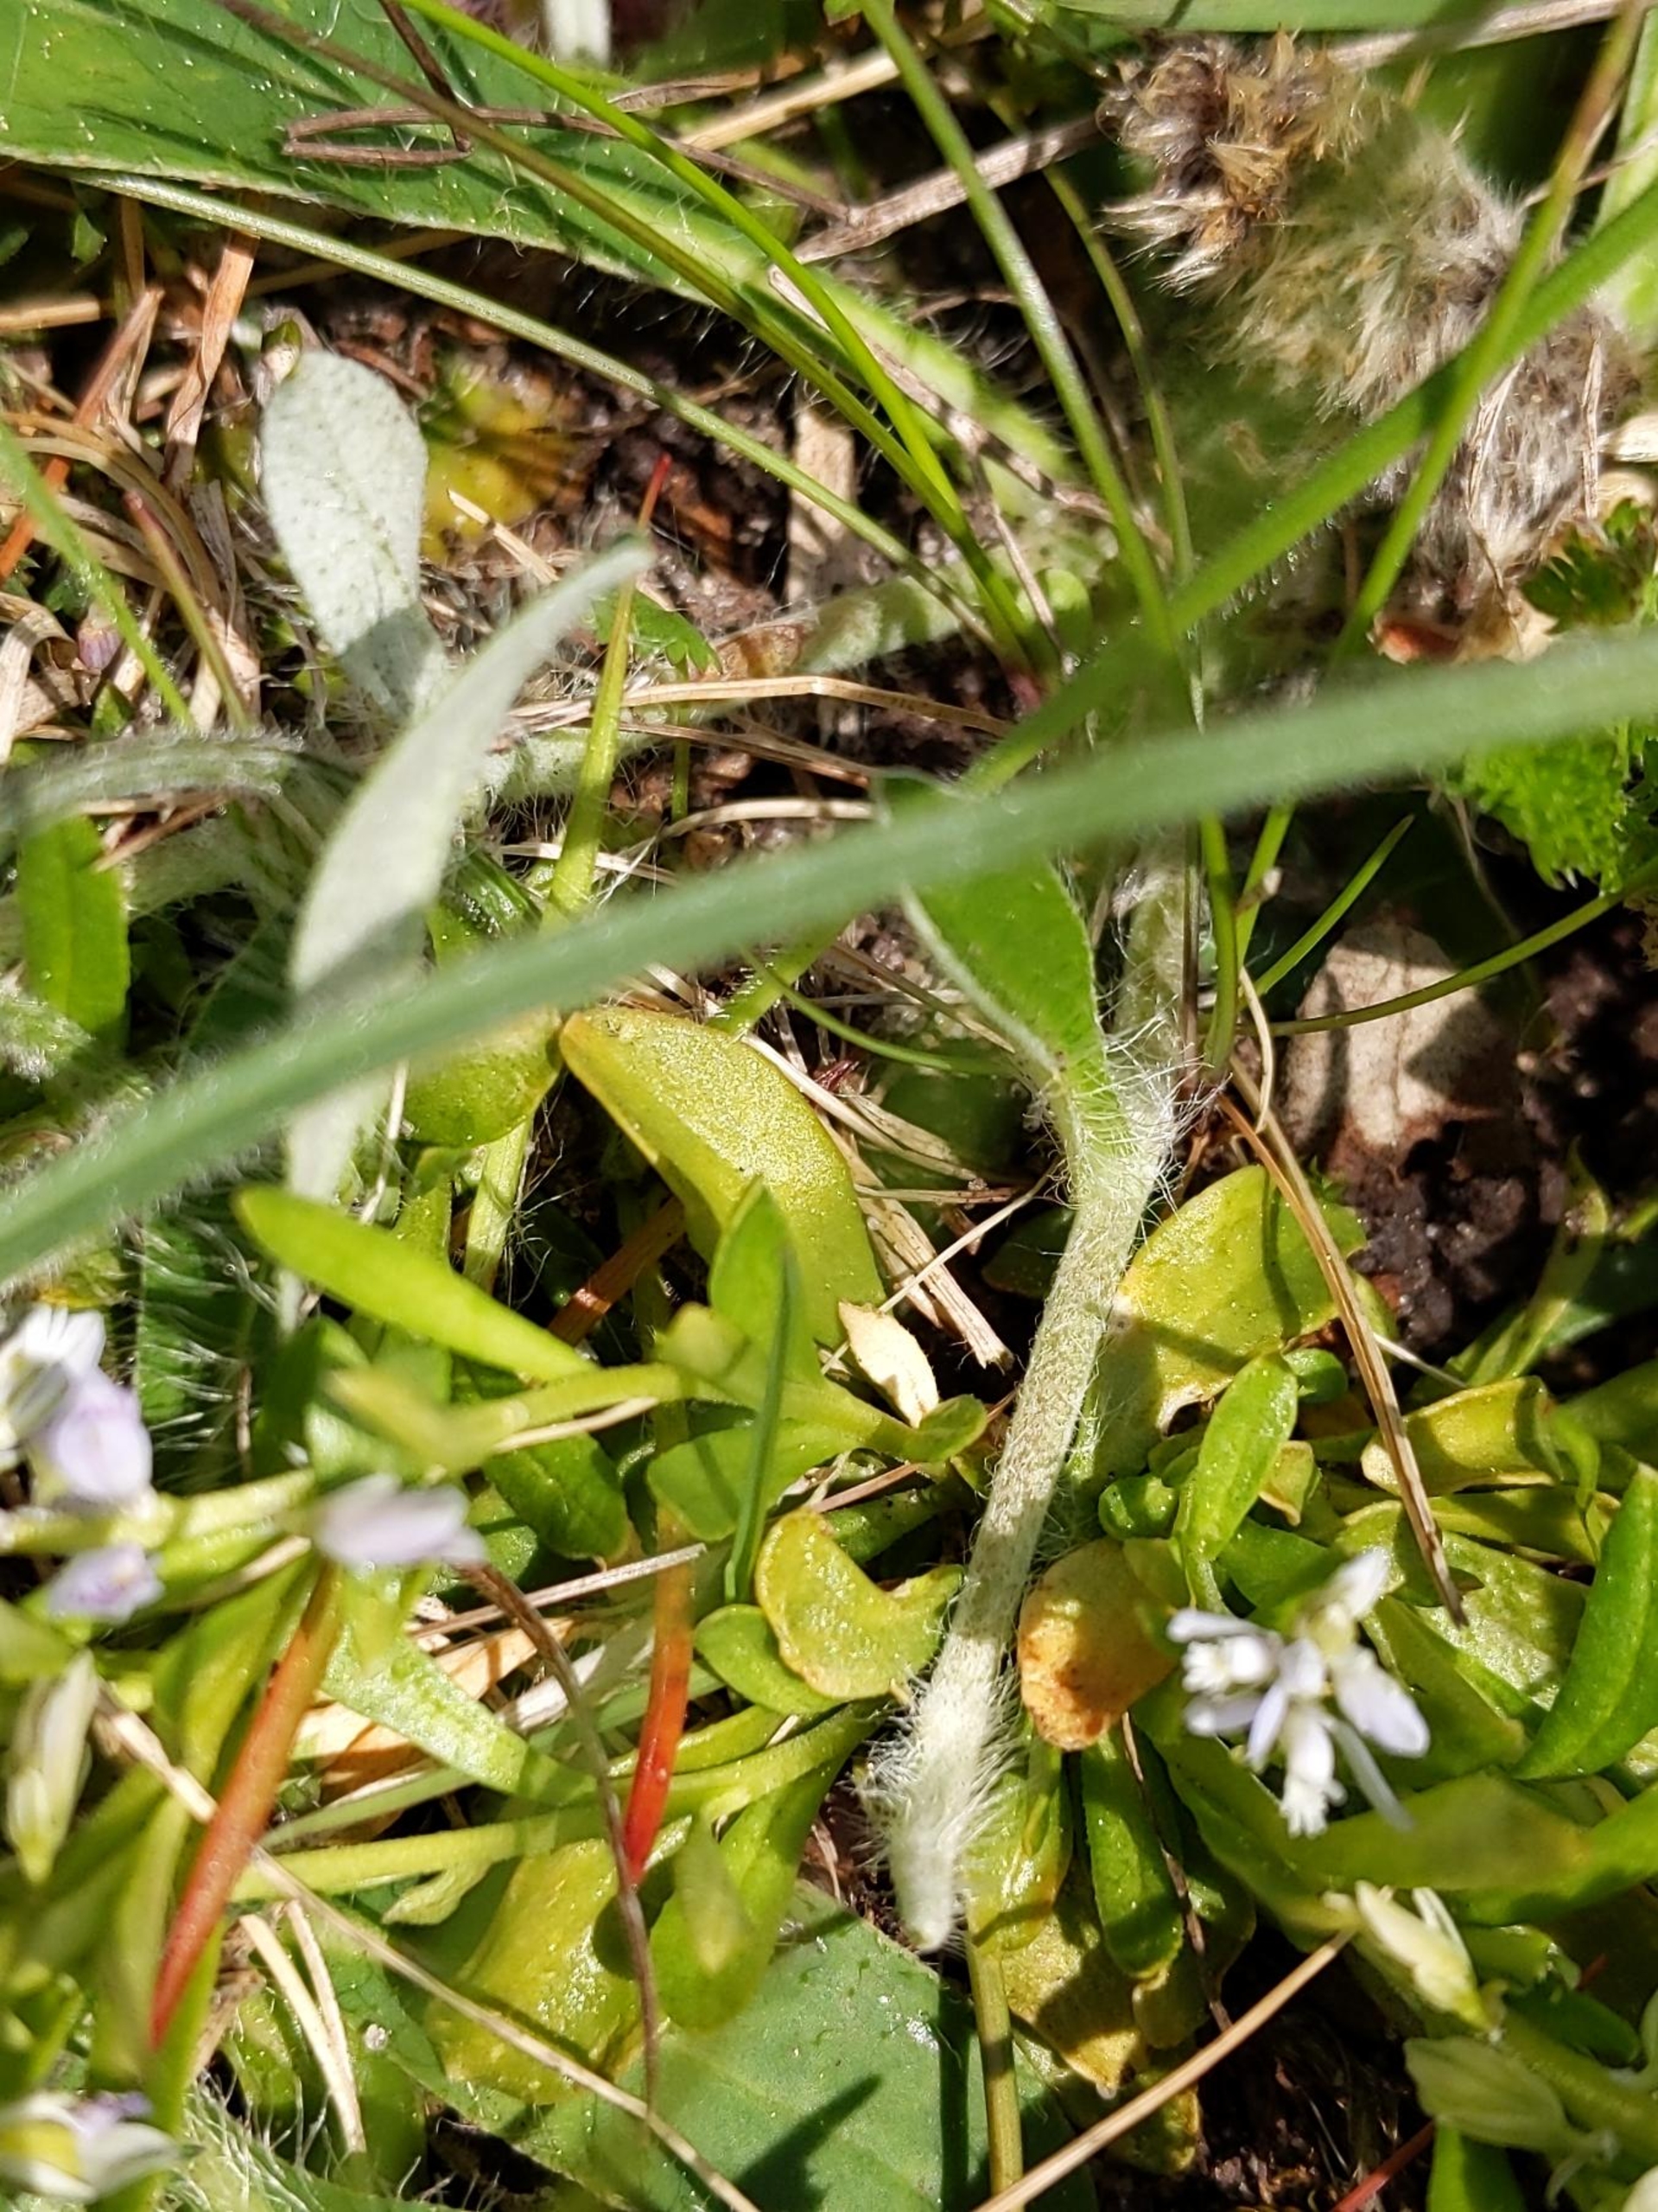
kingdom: Plantae
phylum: Tracheophyta
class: Magnoliopsida
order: Fabales
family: Polygalaceae
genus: Polygala
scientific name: Polygala amarella
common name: Bitter mælkeurt
